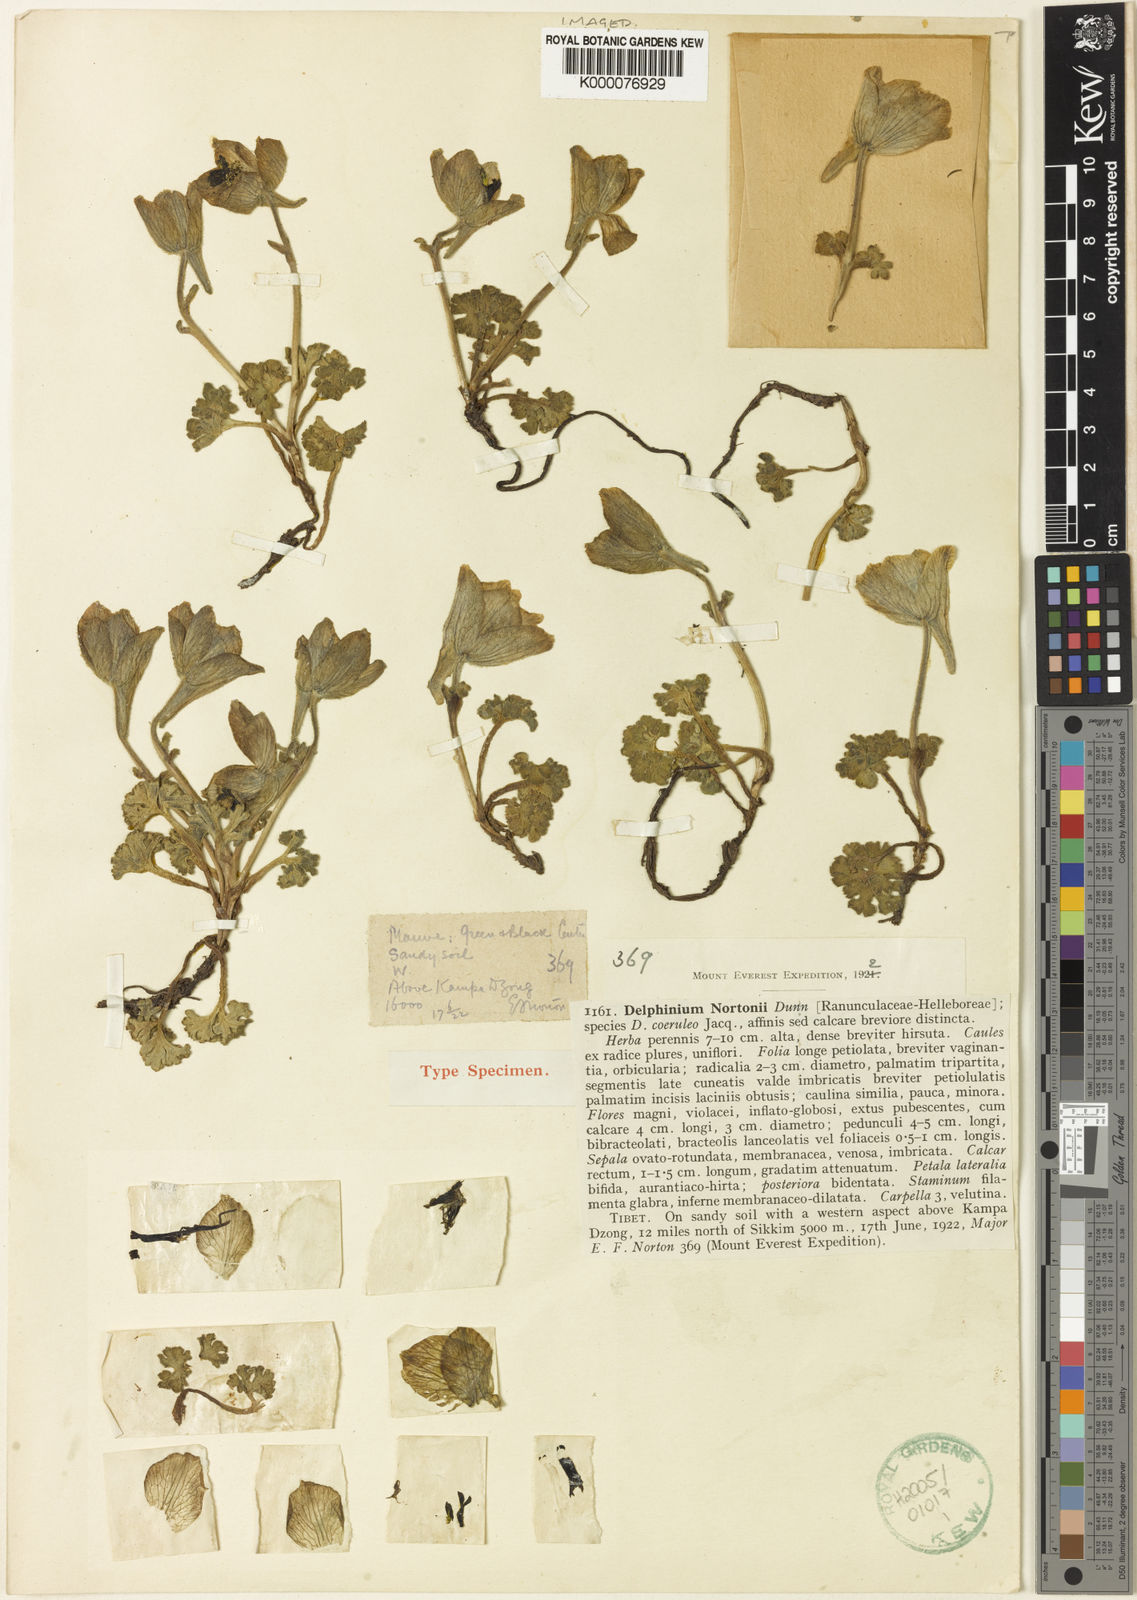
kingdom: Plantae
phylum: Tracheophyta
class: Magnoliopsida
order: Ranunculales
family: Ranunculaceae
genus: Delphinium
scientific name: Delphinium nortonii
